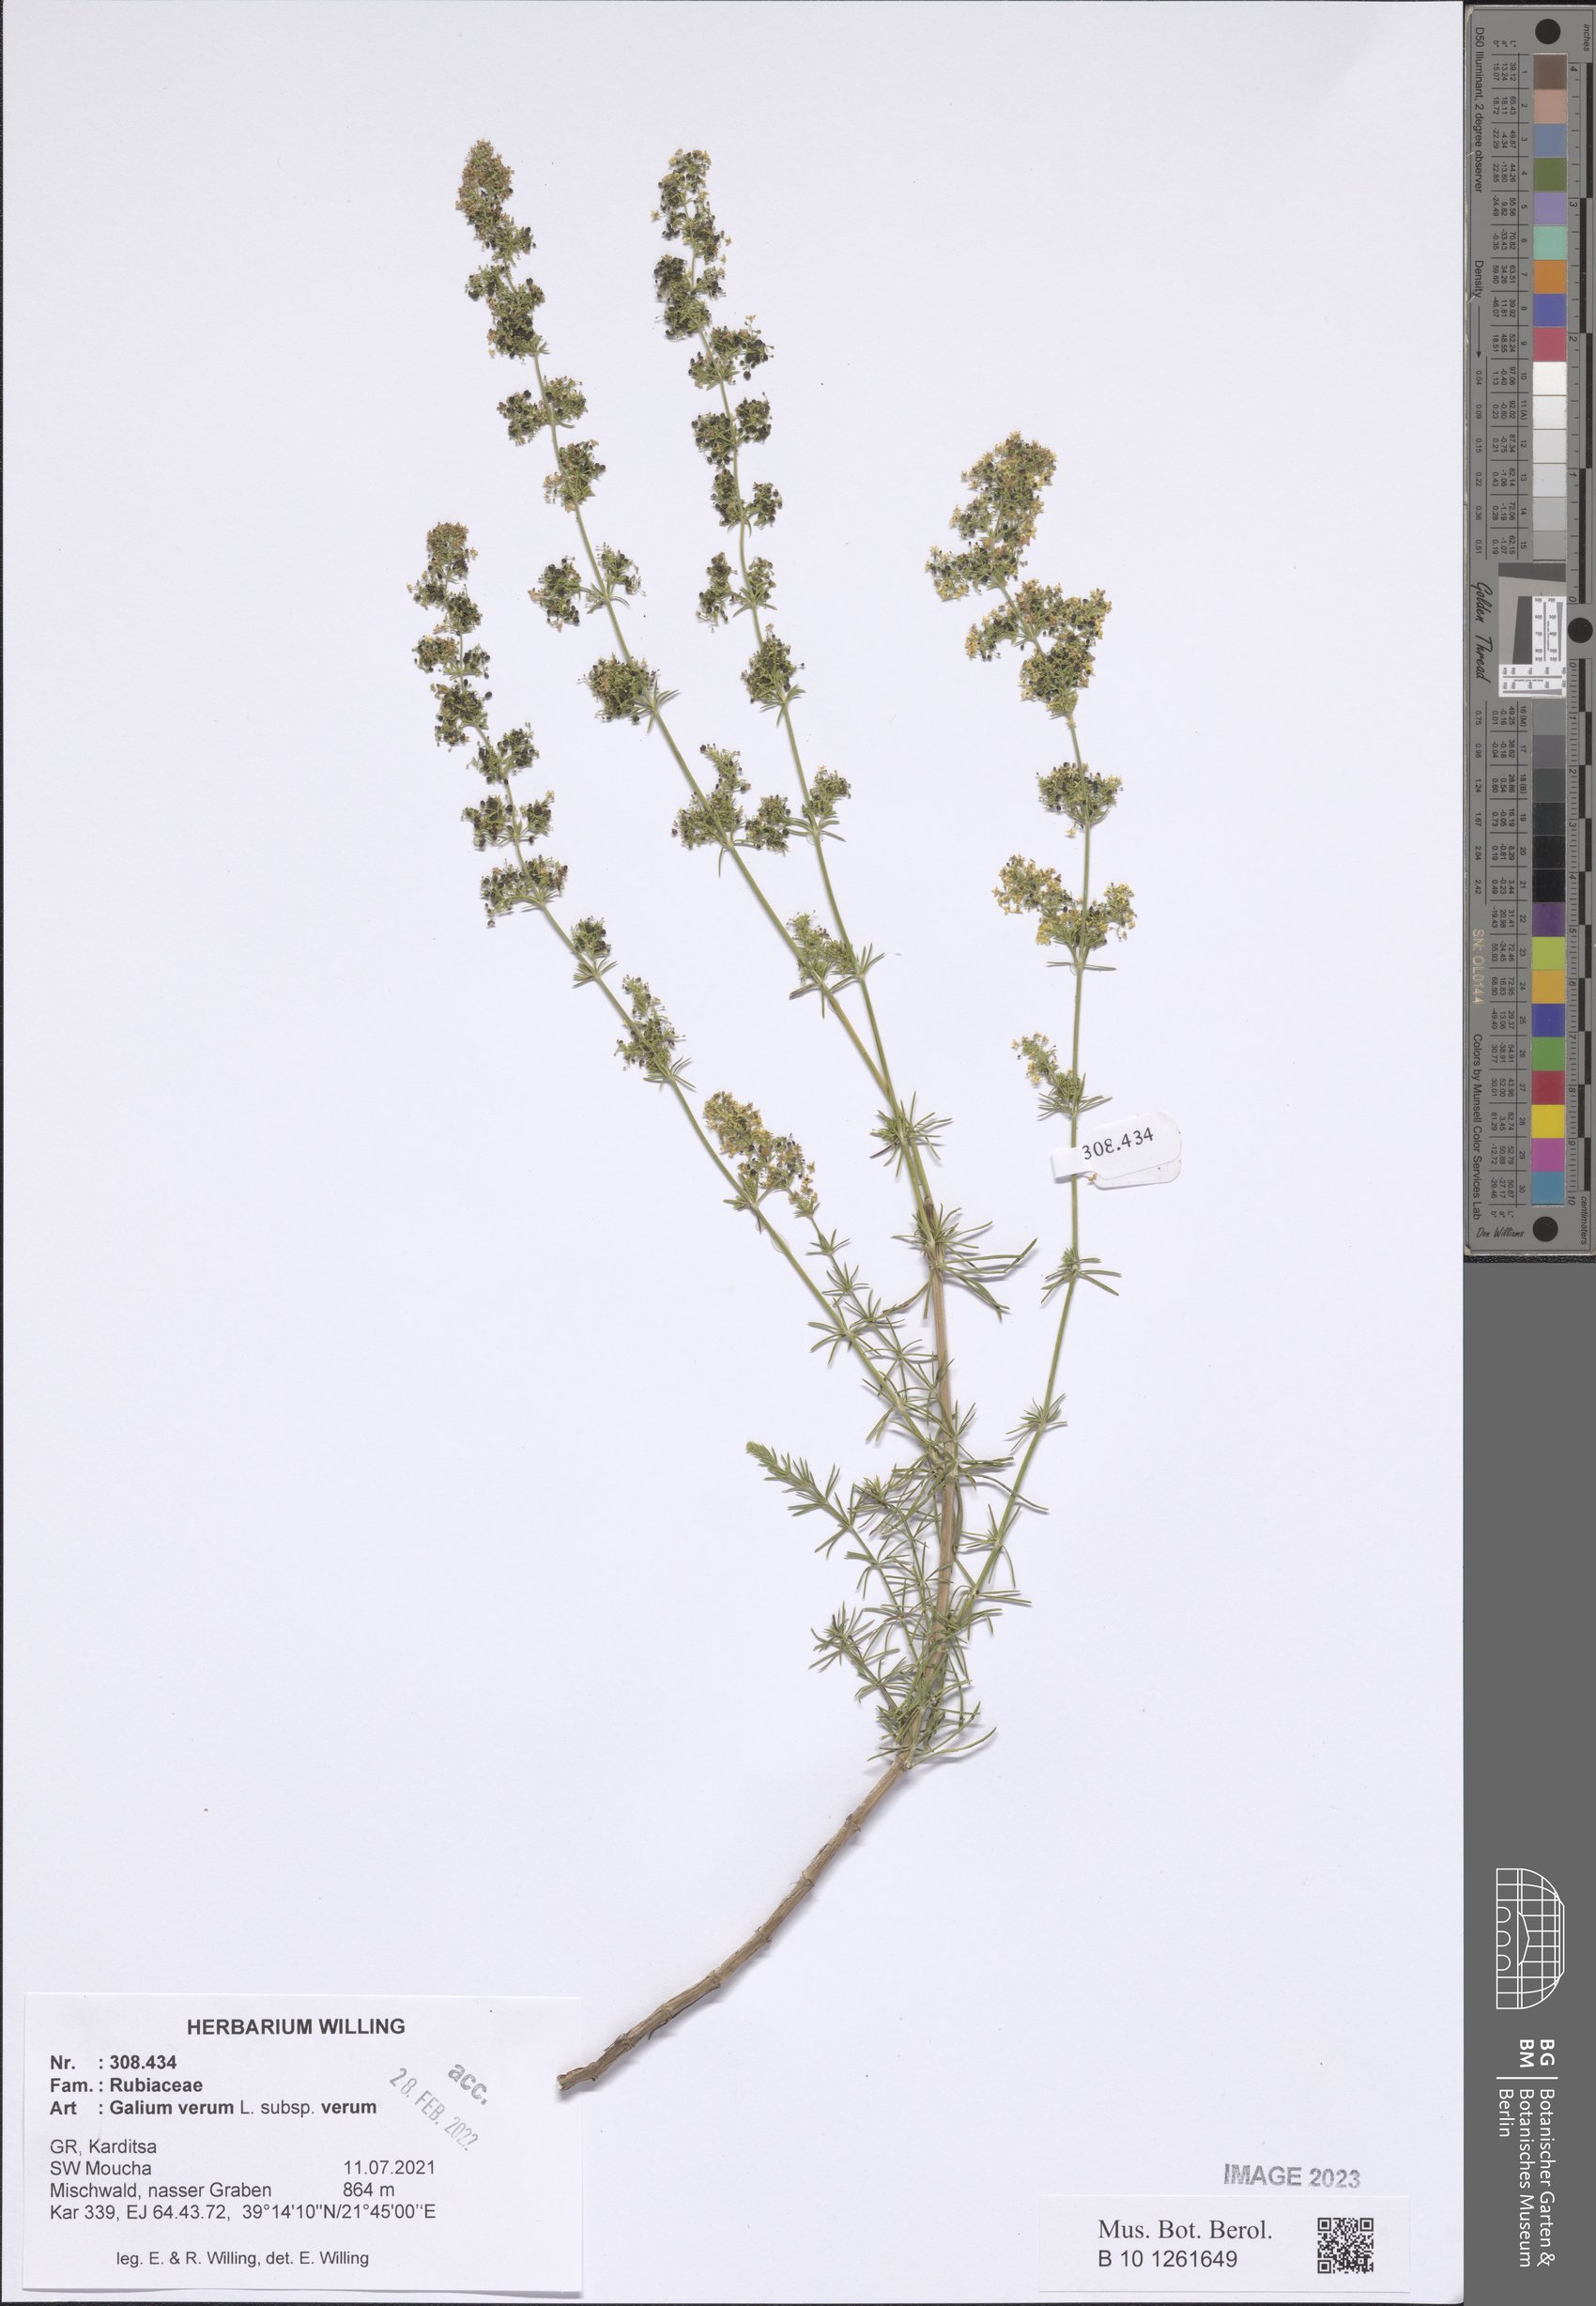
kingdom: Plantae
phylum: Tracheophyta
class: Magnoliopsida
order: Gentianales
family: Rubiaceae
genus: Galium
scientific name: Galium verum
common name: Lady's bedstraw
